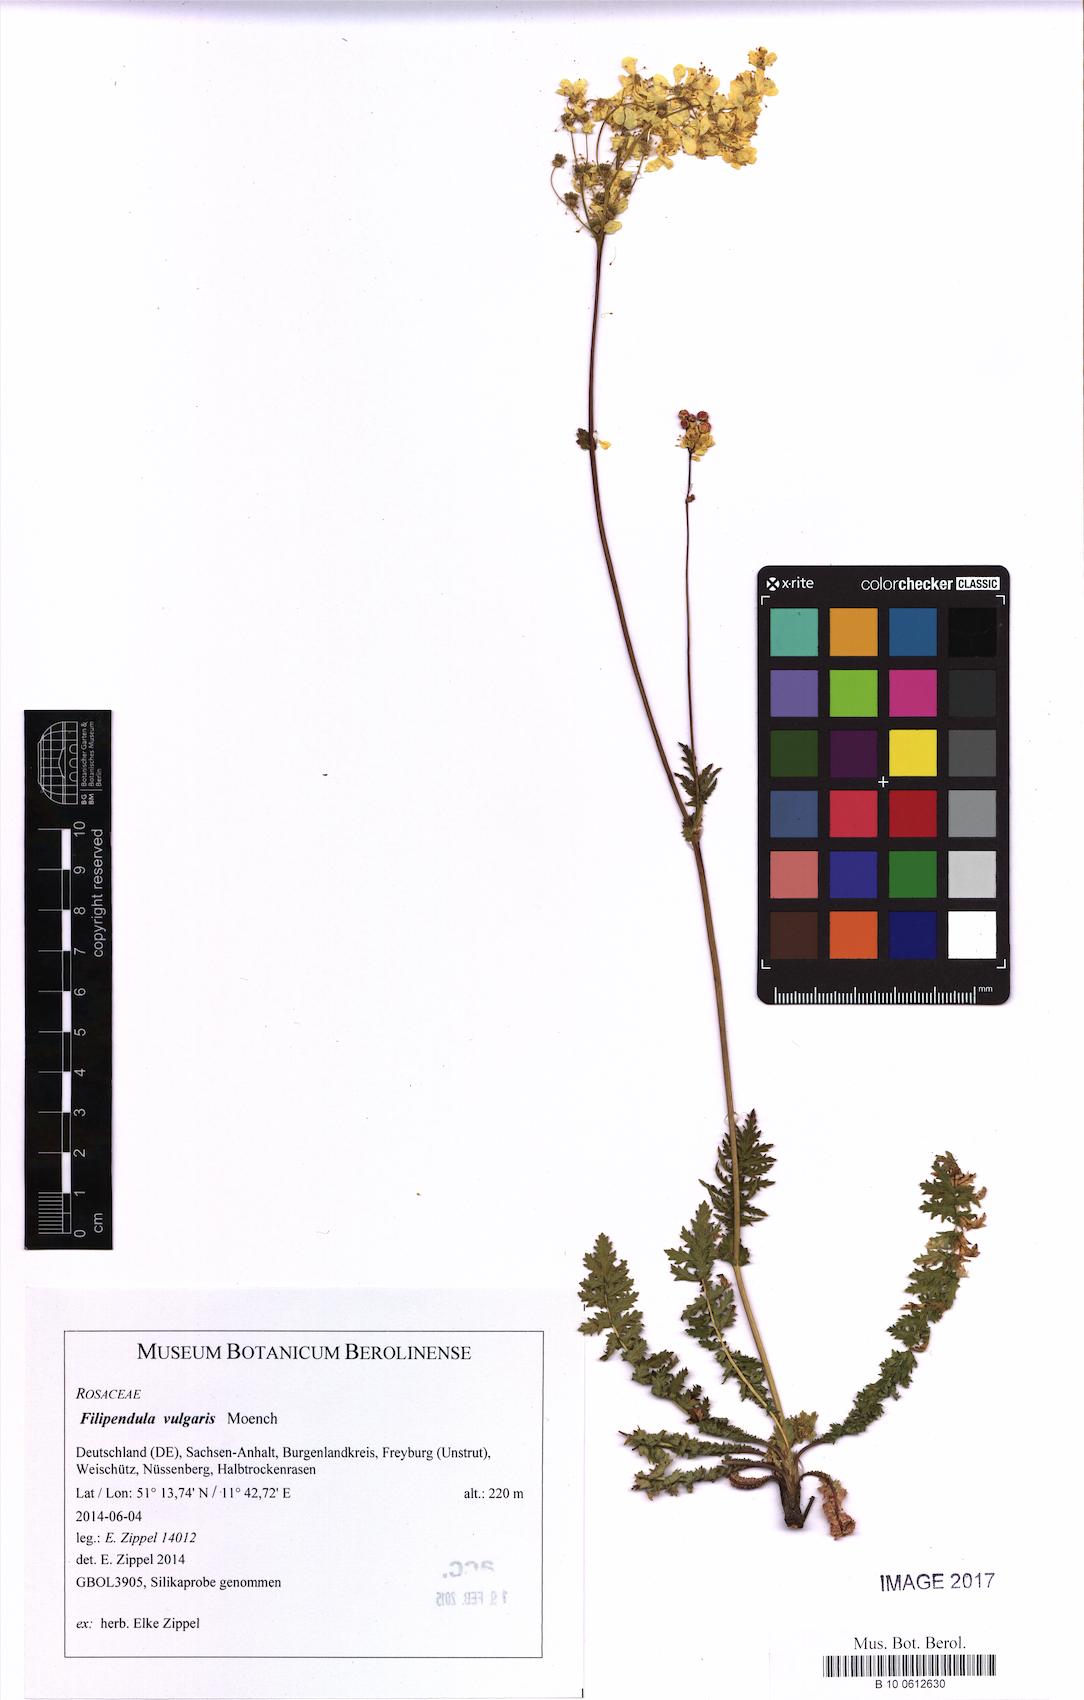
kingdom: Plantae
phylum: Tracheophyta
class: Magnoliopsida
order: Rosales
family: Rosaceae
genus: Filipendula
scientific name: Filipendula vulgaris
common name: Dropwort
